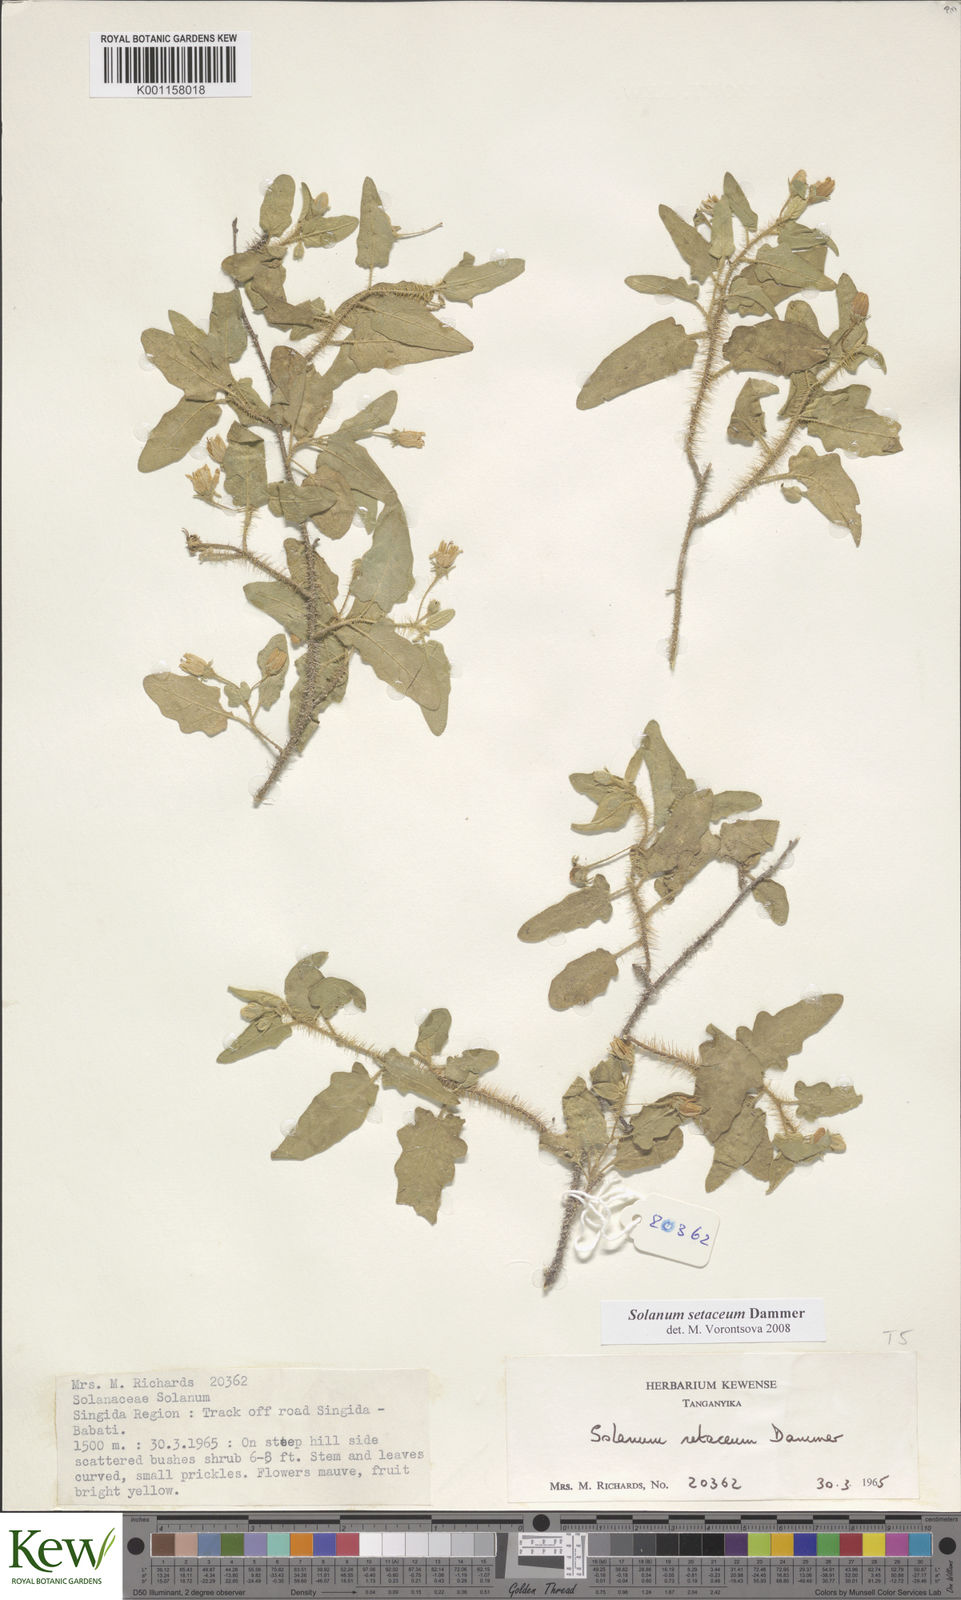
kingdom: Plantae
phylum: Tracheophyta
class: Magnoliopsida
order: Solanales
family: Solanaceae
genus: Solanum
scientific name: Solanum setaceum
